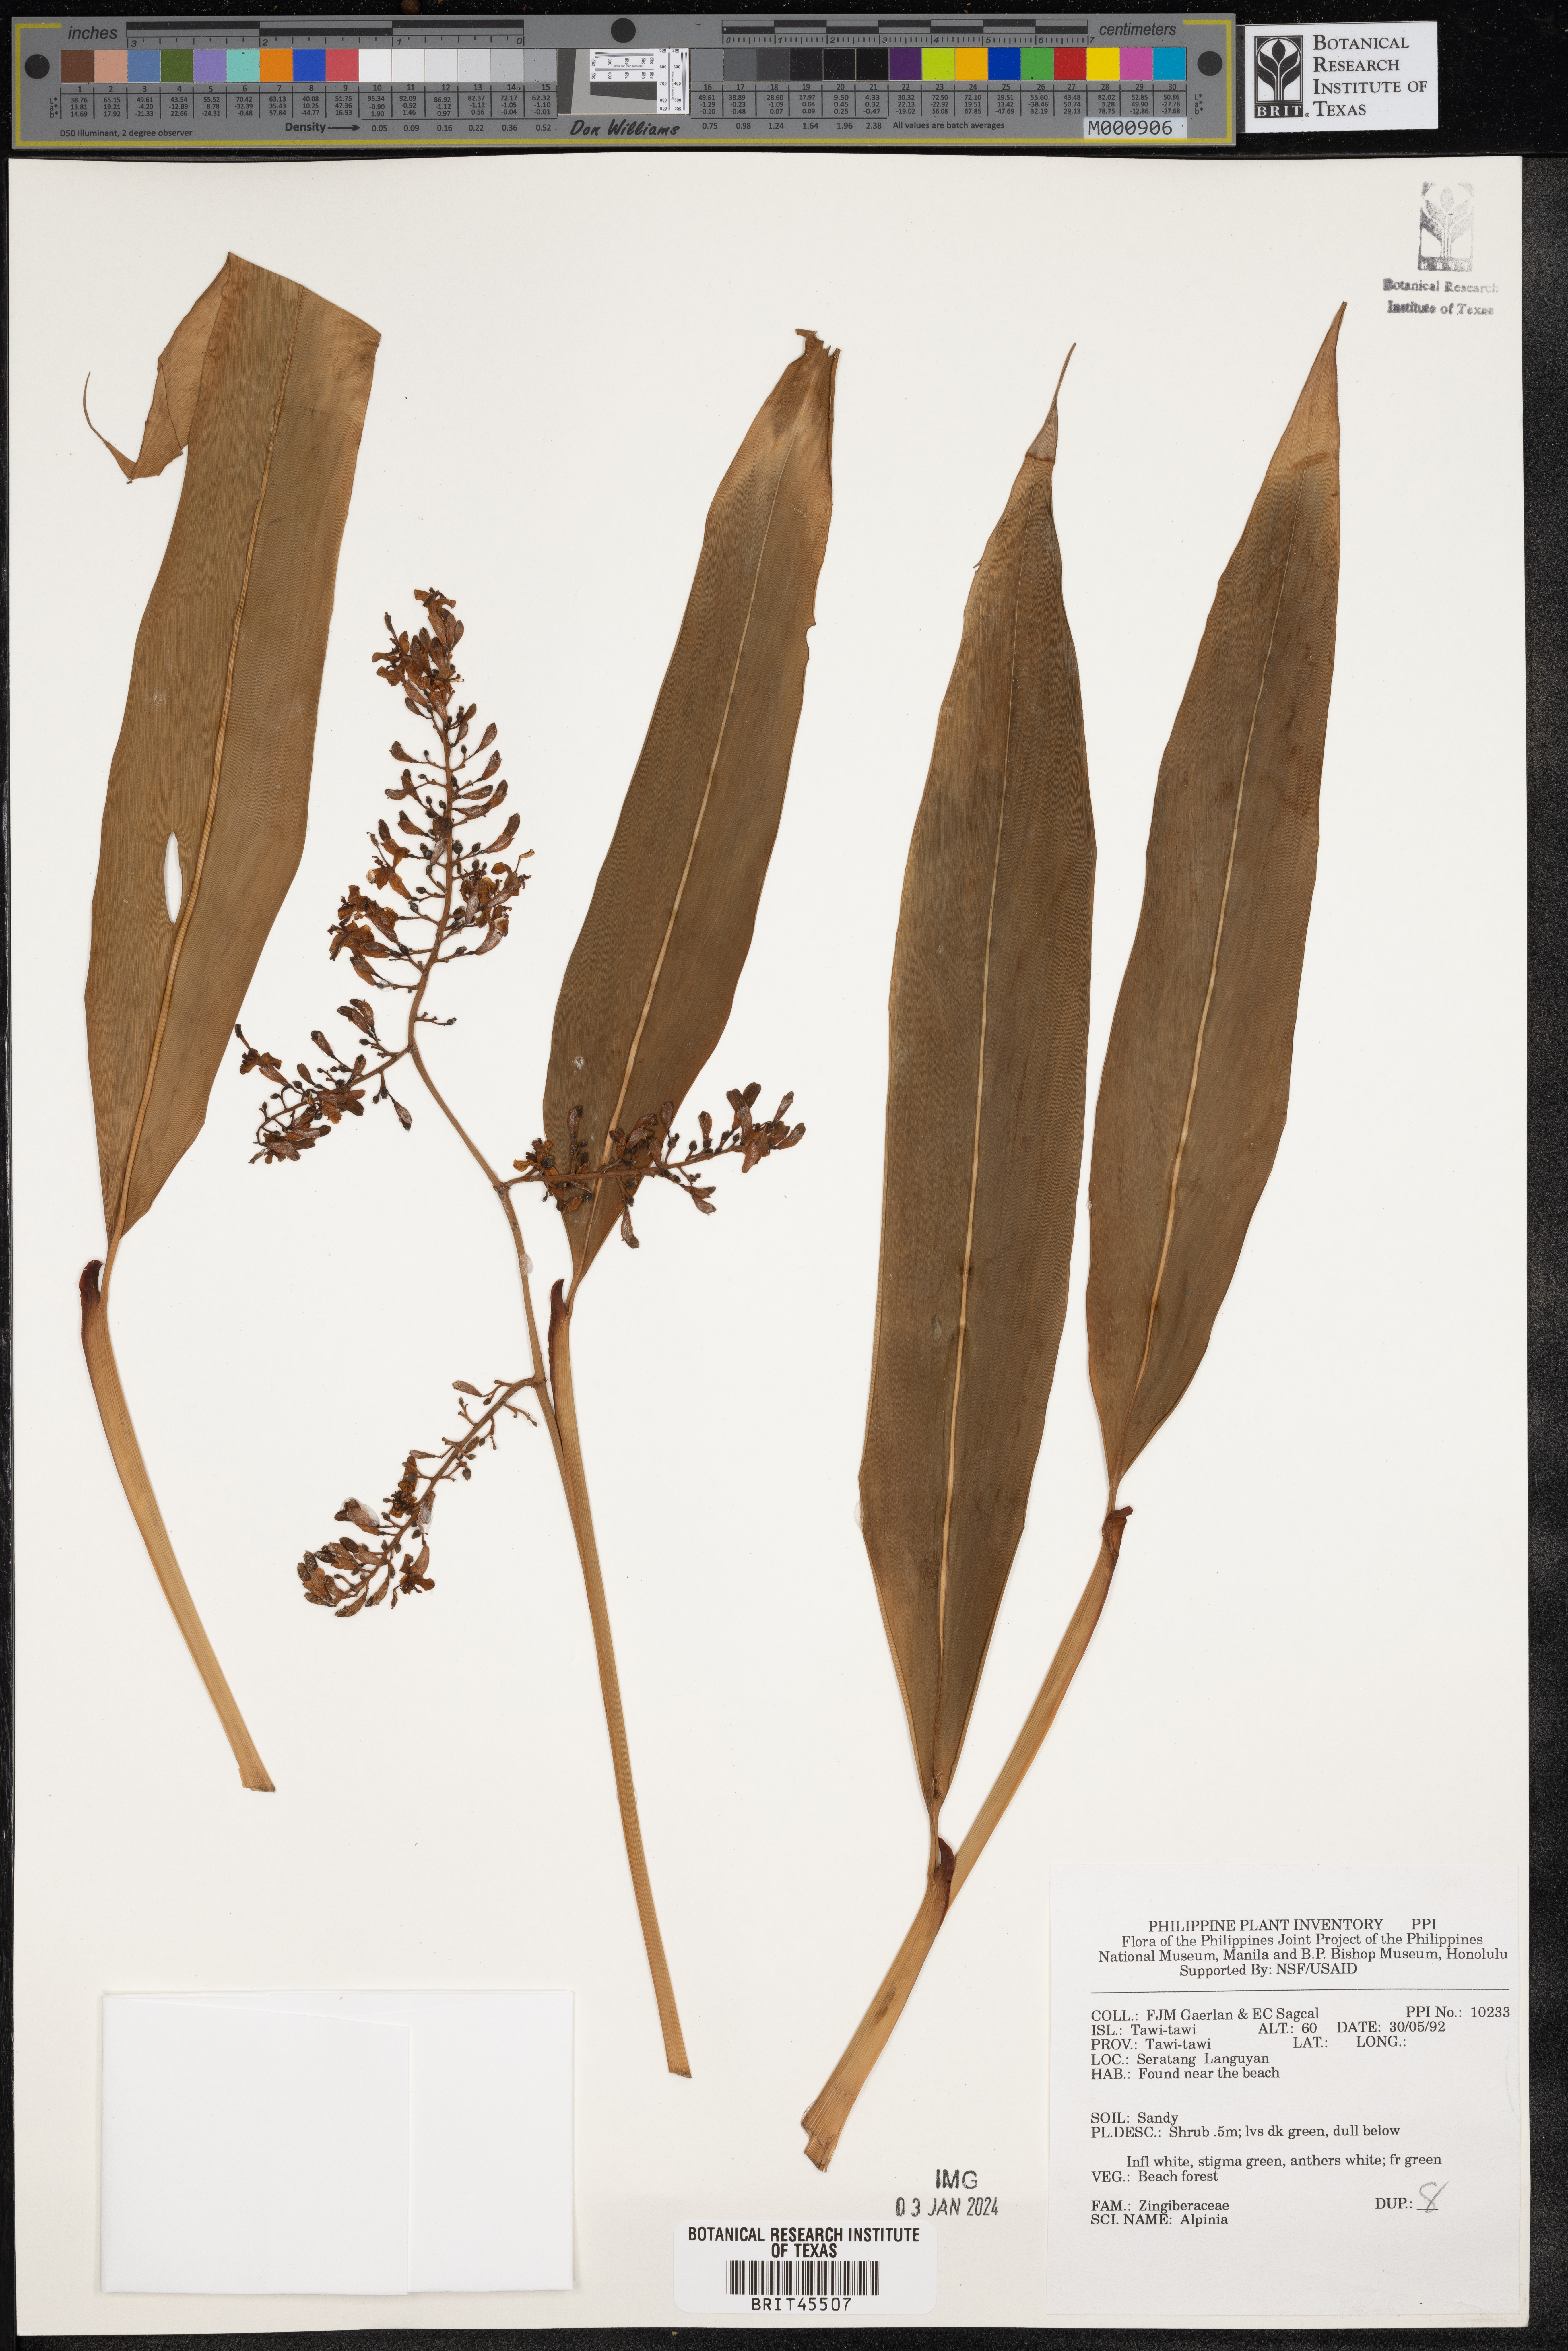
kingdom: Plantae
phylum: Tracheophyta
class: Liliopsida
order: Zingiberales
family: Zingiberaceae
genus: Alpinia
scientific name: Alpinia
